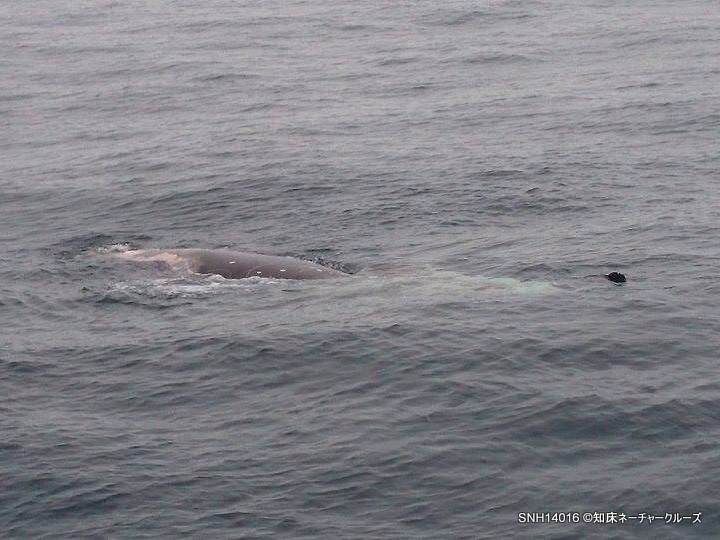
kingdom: Animalia
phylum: Chordata
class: Mammalia
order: Cetacea
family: Hyperoodontidae
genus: Berardius
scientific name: Berardius minimus
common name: Sato's beaked whale
